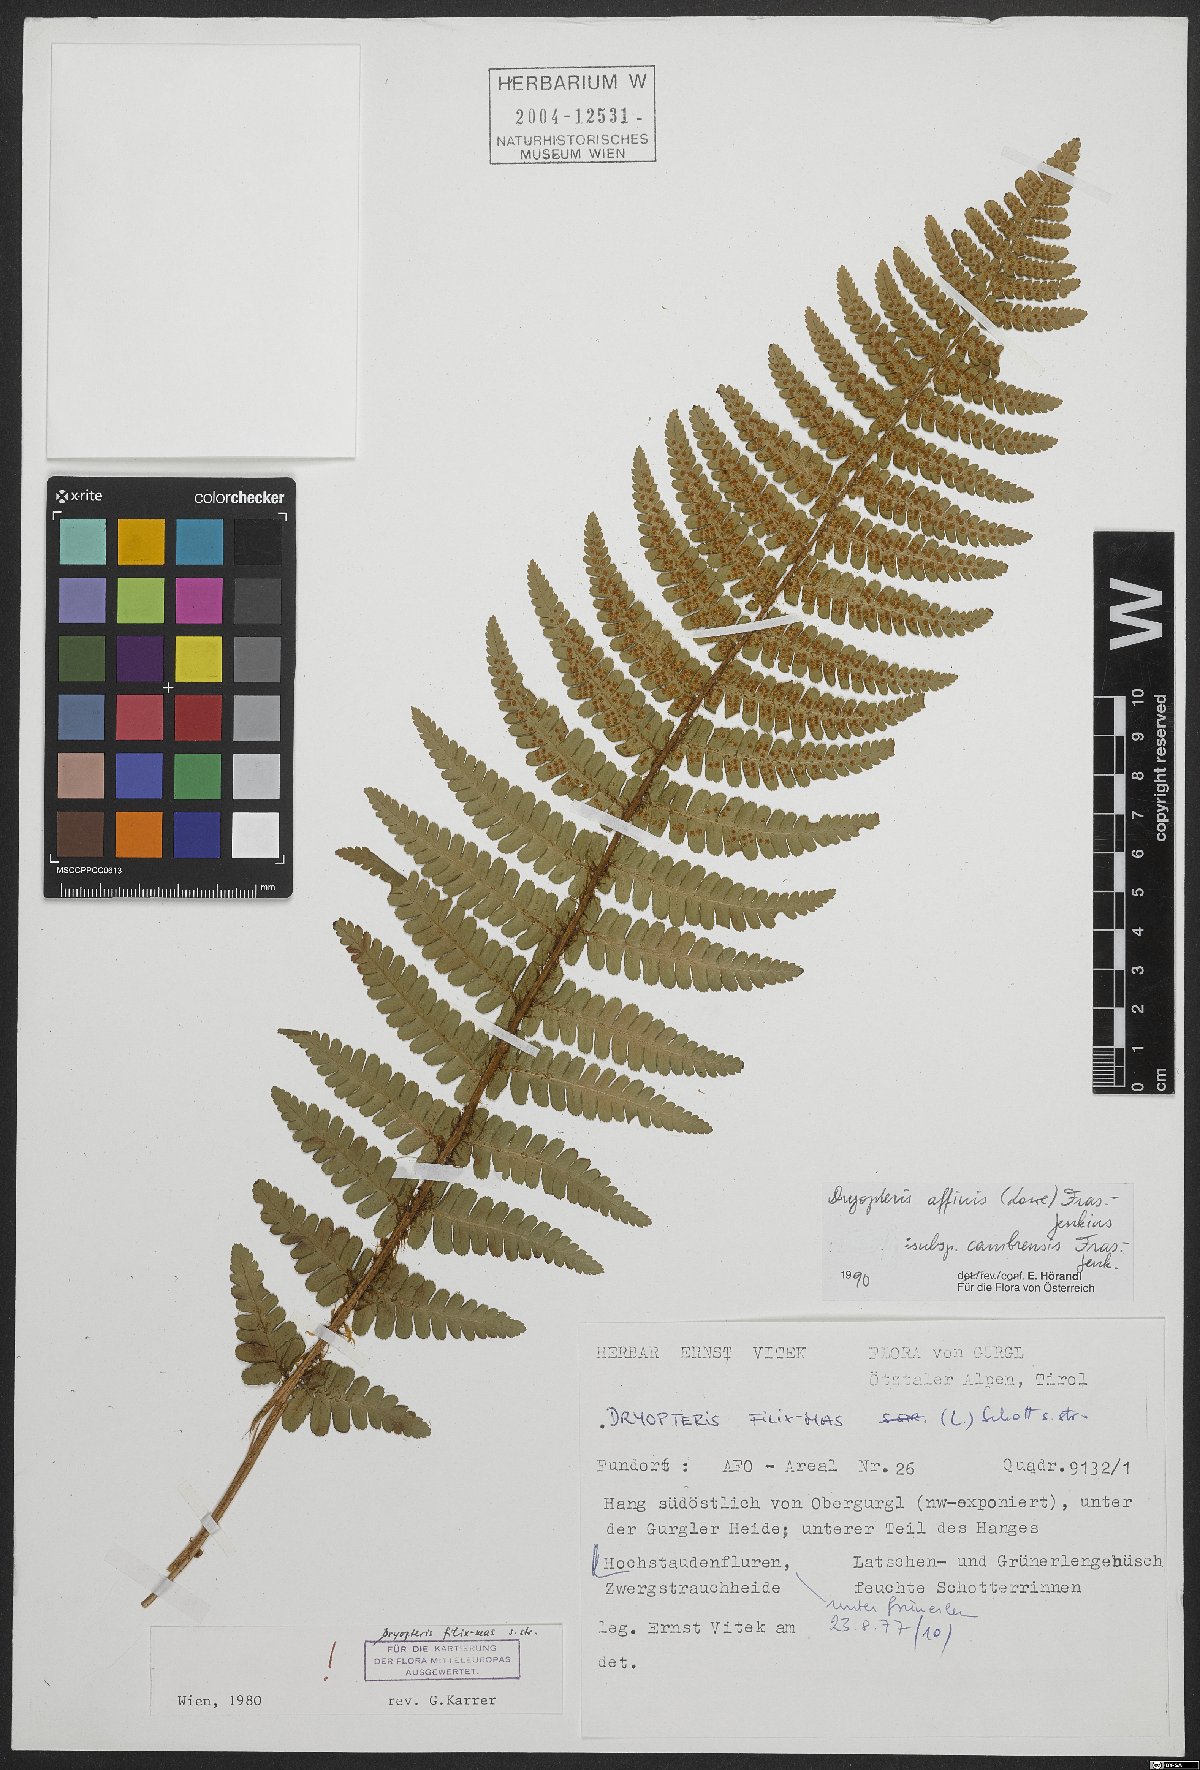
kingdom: Plantae
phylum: Tracheophyta
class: Polypodiopsida
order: Polypodiales
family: Dryopteridaceae
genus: Dryopteris
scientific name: Dryopteris cambrensis
